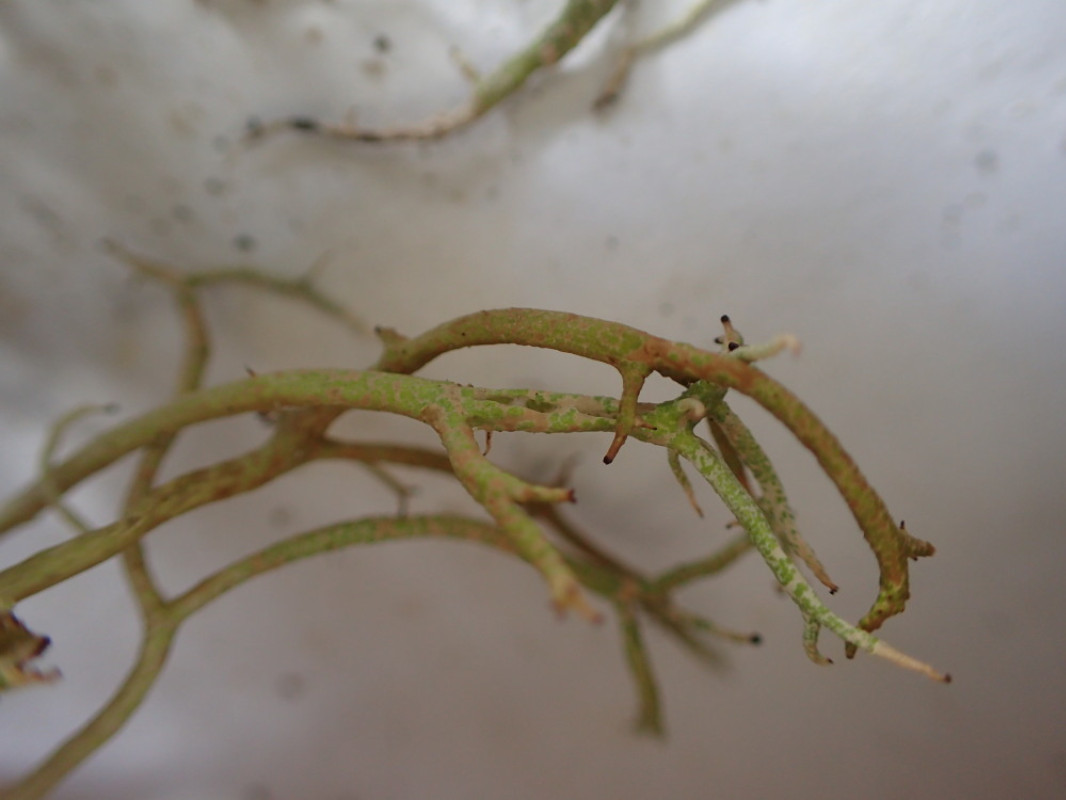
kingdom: Fungi
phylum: Ascomycota
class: Lecanoromycetes
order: Lecanorales
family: Cladoniaceae
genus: Cladonia
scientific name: Cladonia furcata
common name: kløftet bægerlav
